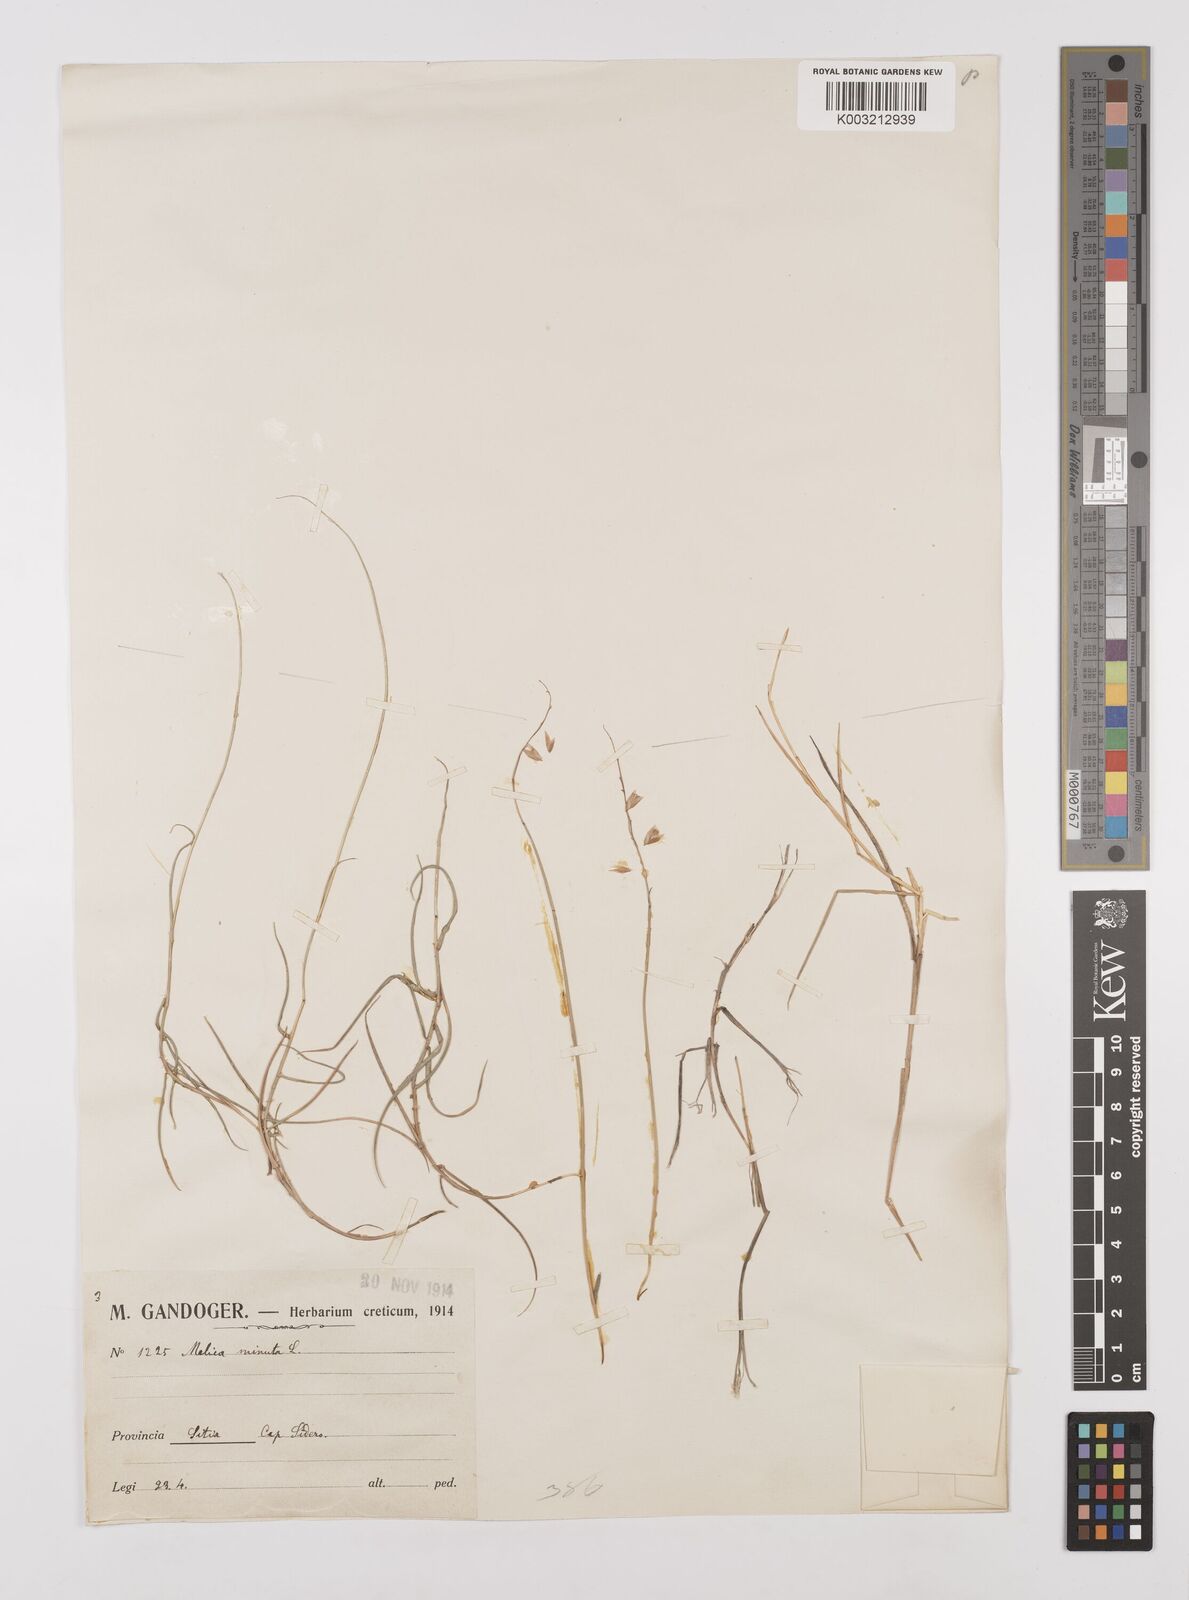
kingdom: Plantae
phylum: Tracheophyta
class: Liliopsida
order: Poales
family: Poaceae
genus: Melica
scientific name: Melica minuta
